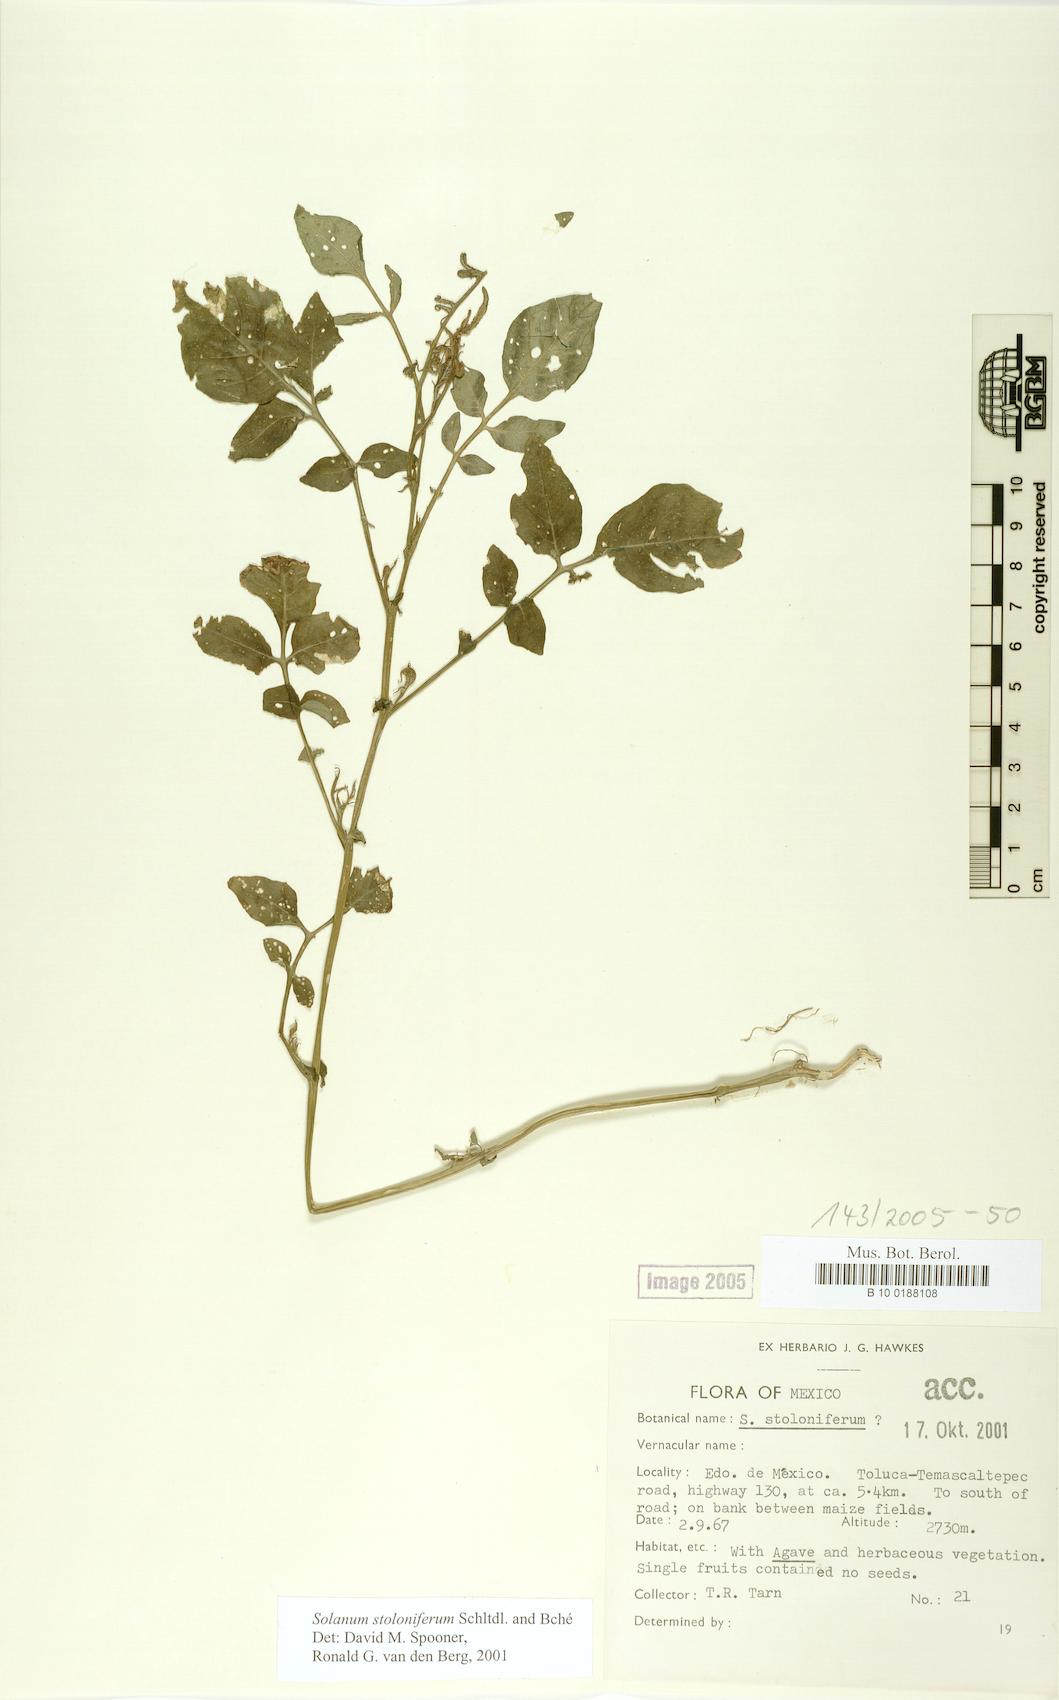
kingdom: Plantae
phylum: Tracheophyta
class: Magnoliopsida
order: Solanales
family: Solanaceae
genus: Solanum
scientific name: Solanum stoloniferum
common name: Fendler's nighshade
